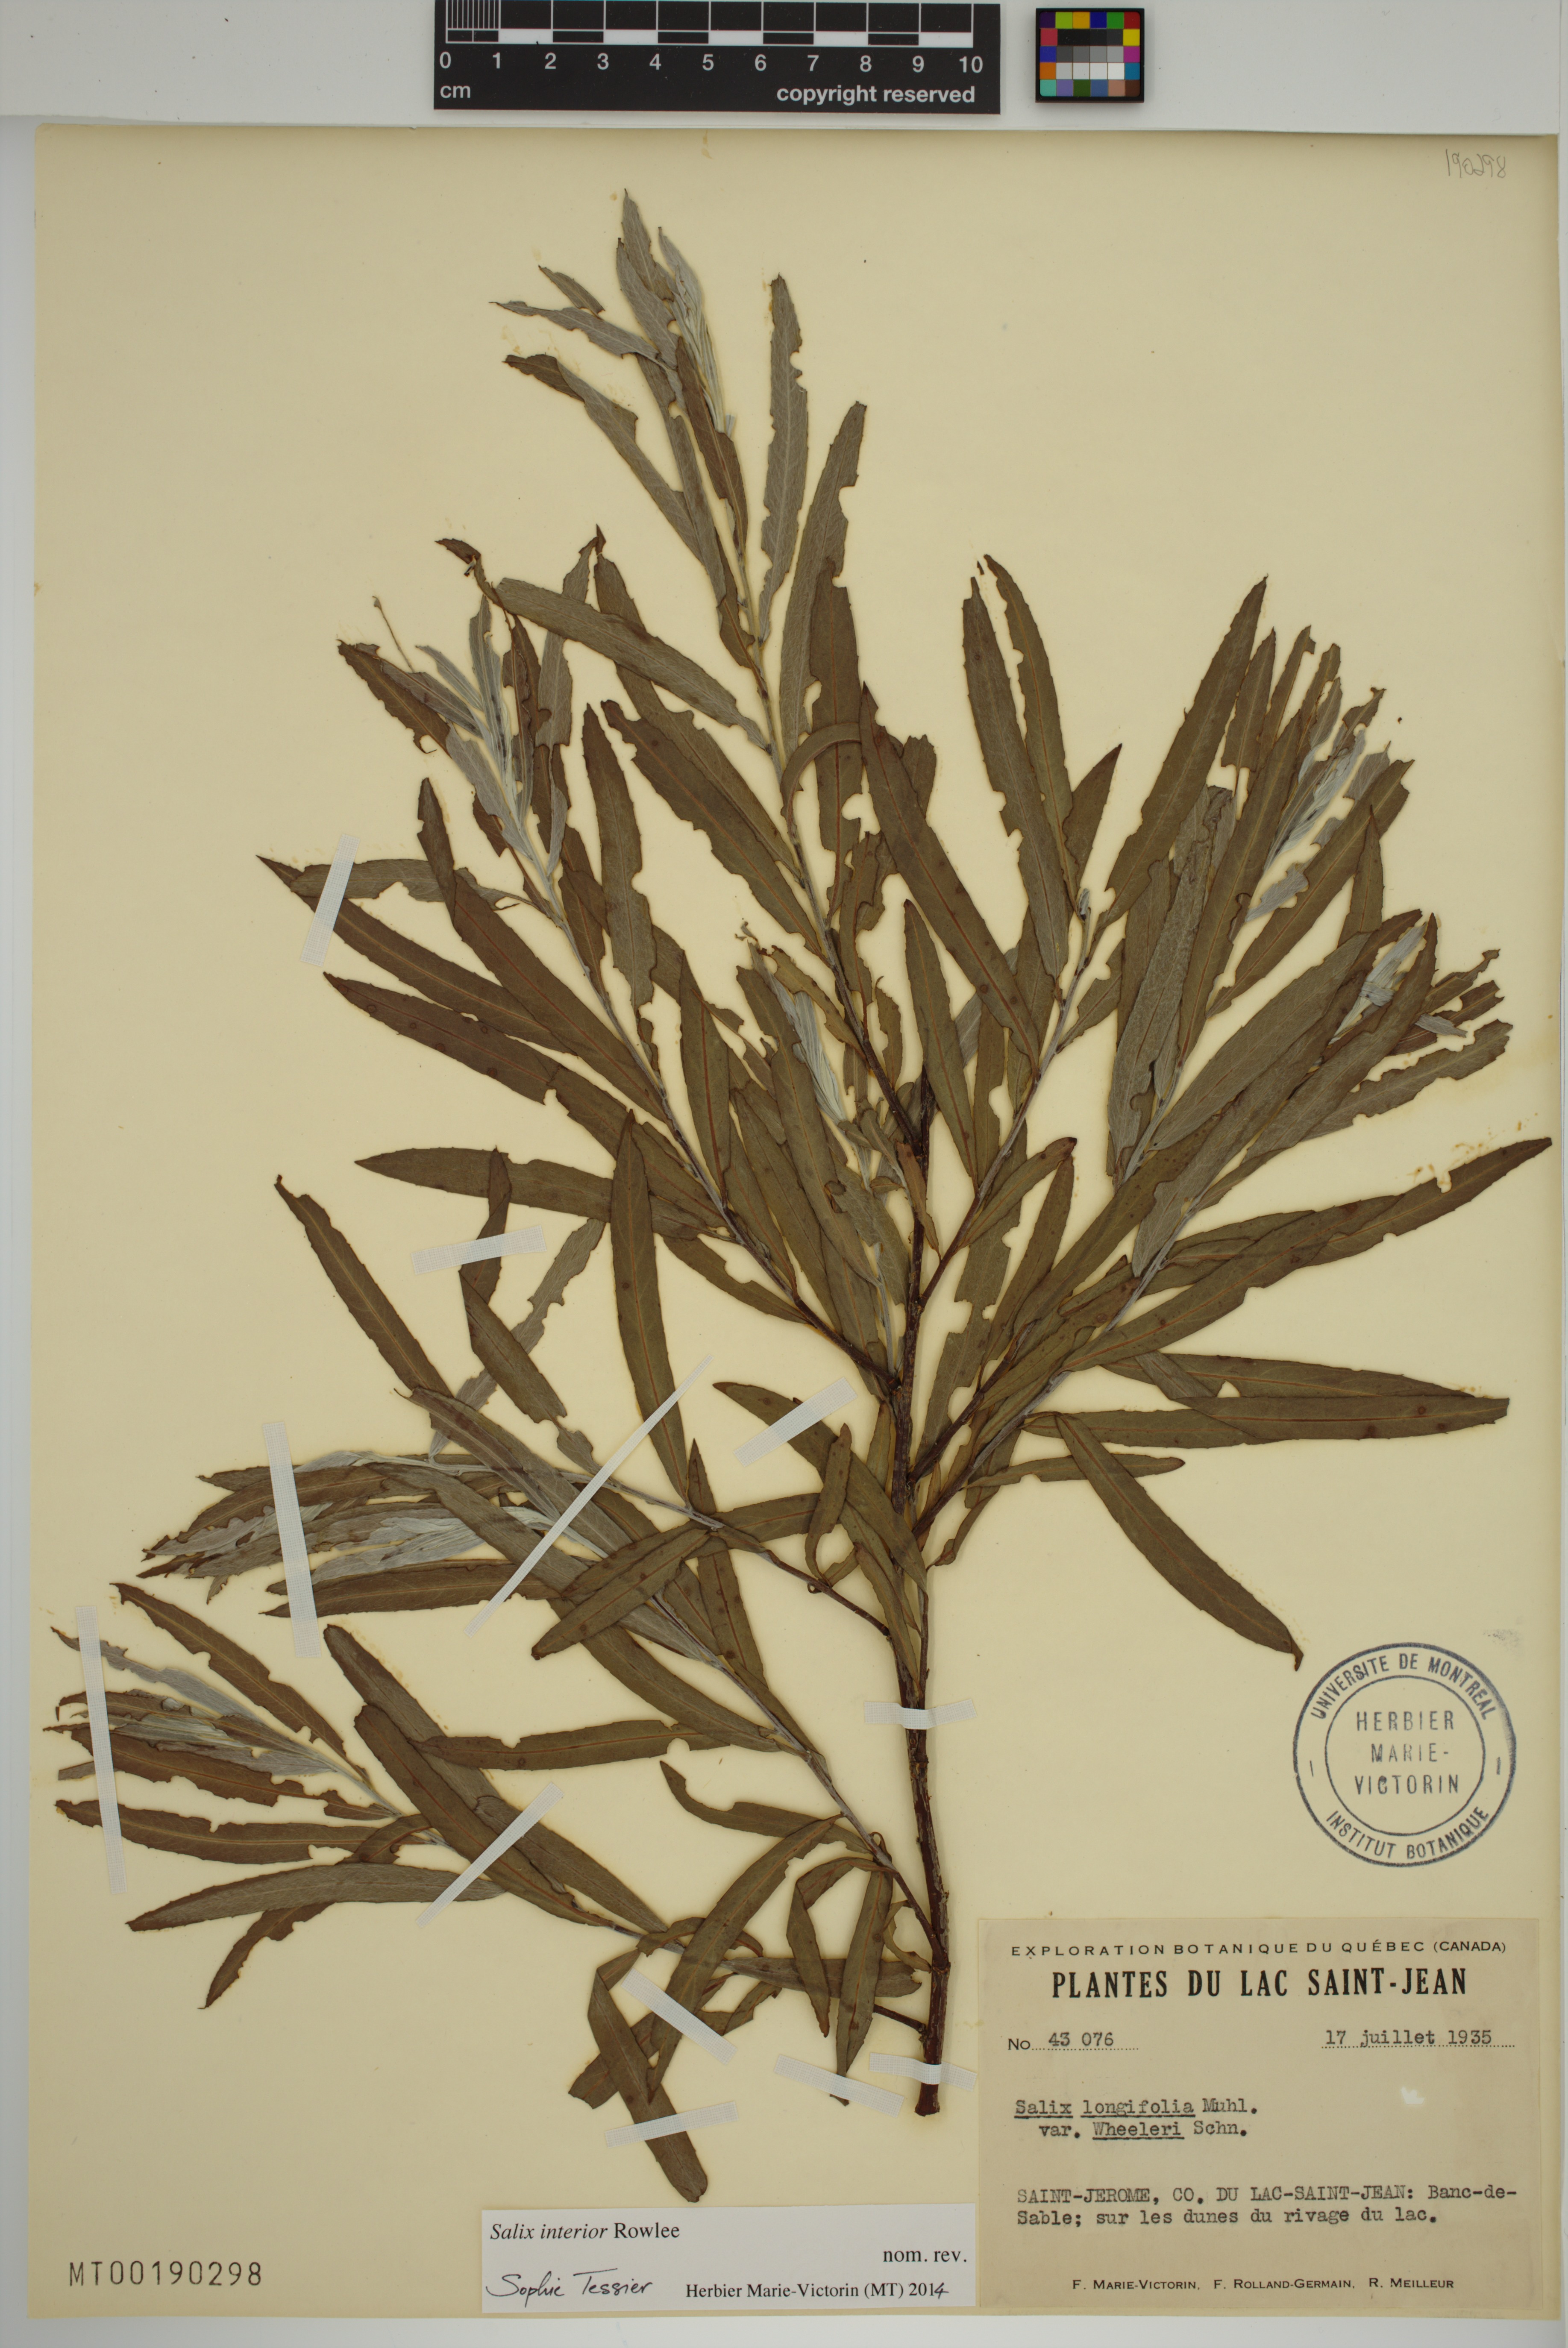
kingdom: Plantae
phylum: Tracheophyta
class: Magnoliopsida
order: Malpighiales
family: Salicaceae
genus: Salix
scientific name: Salix interior
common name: Sandbar willow
